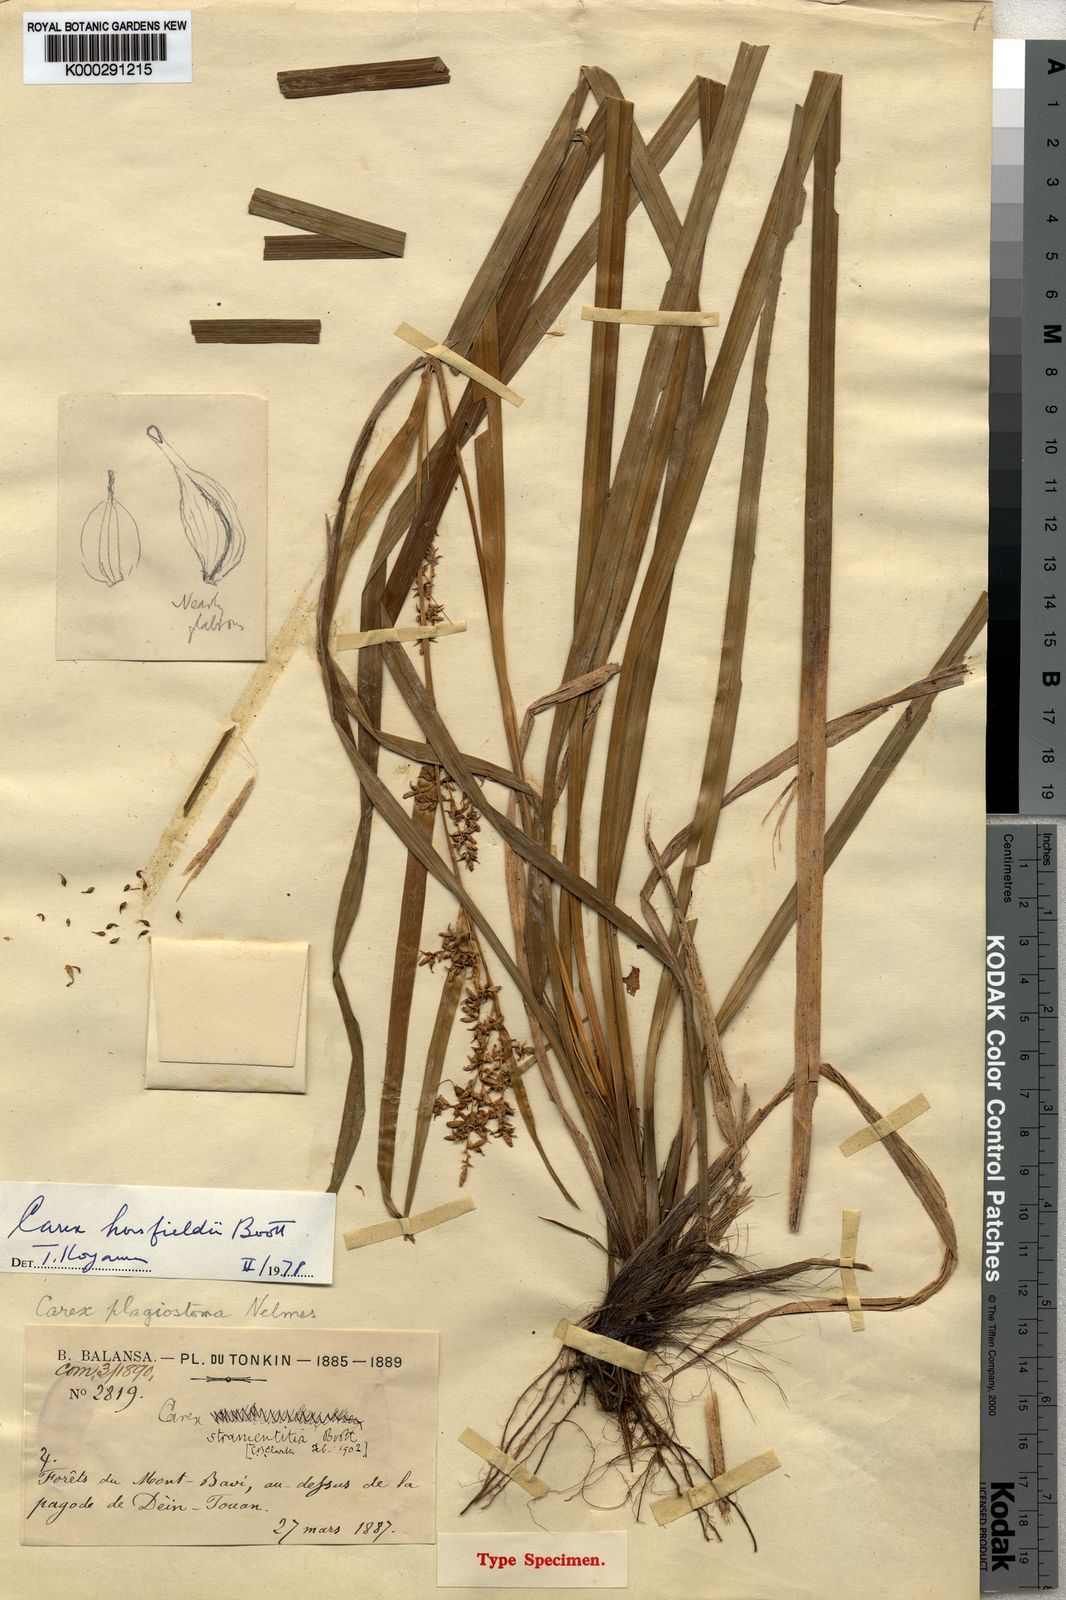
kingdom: Plantae
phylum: Tracheophyta
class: Liliopsida
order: Poales
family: Cyperaceae
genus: Carex
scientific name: Carex horsfieldii
